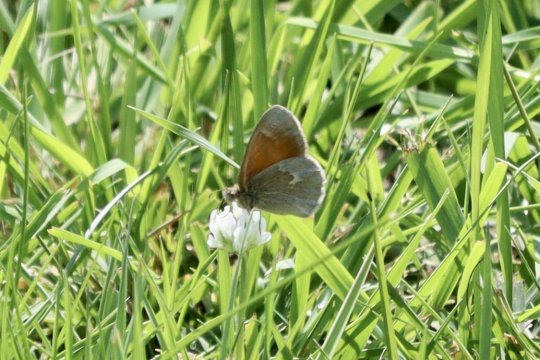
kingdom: Animalia
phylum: Arthropoda
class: Insecta
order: Lepidoptera
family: Nymphalidae
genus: Coenonympha
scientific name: Coenonympha california
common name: California Ringlet
